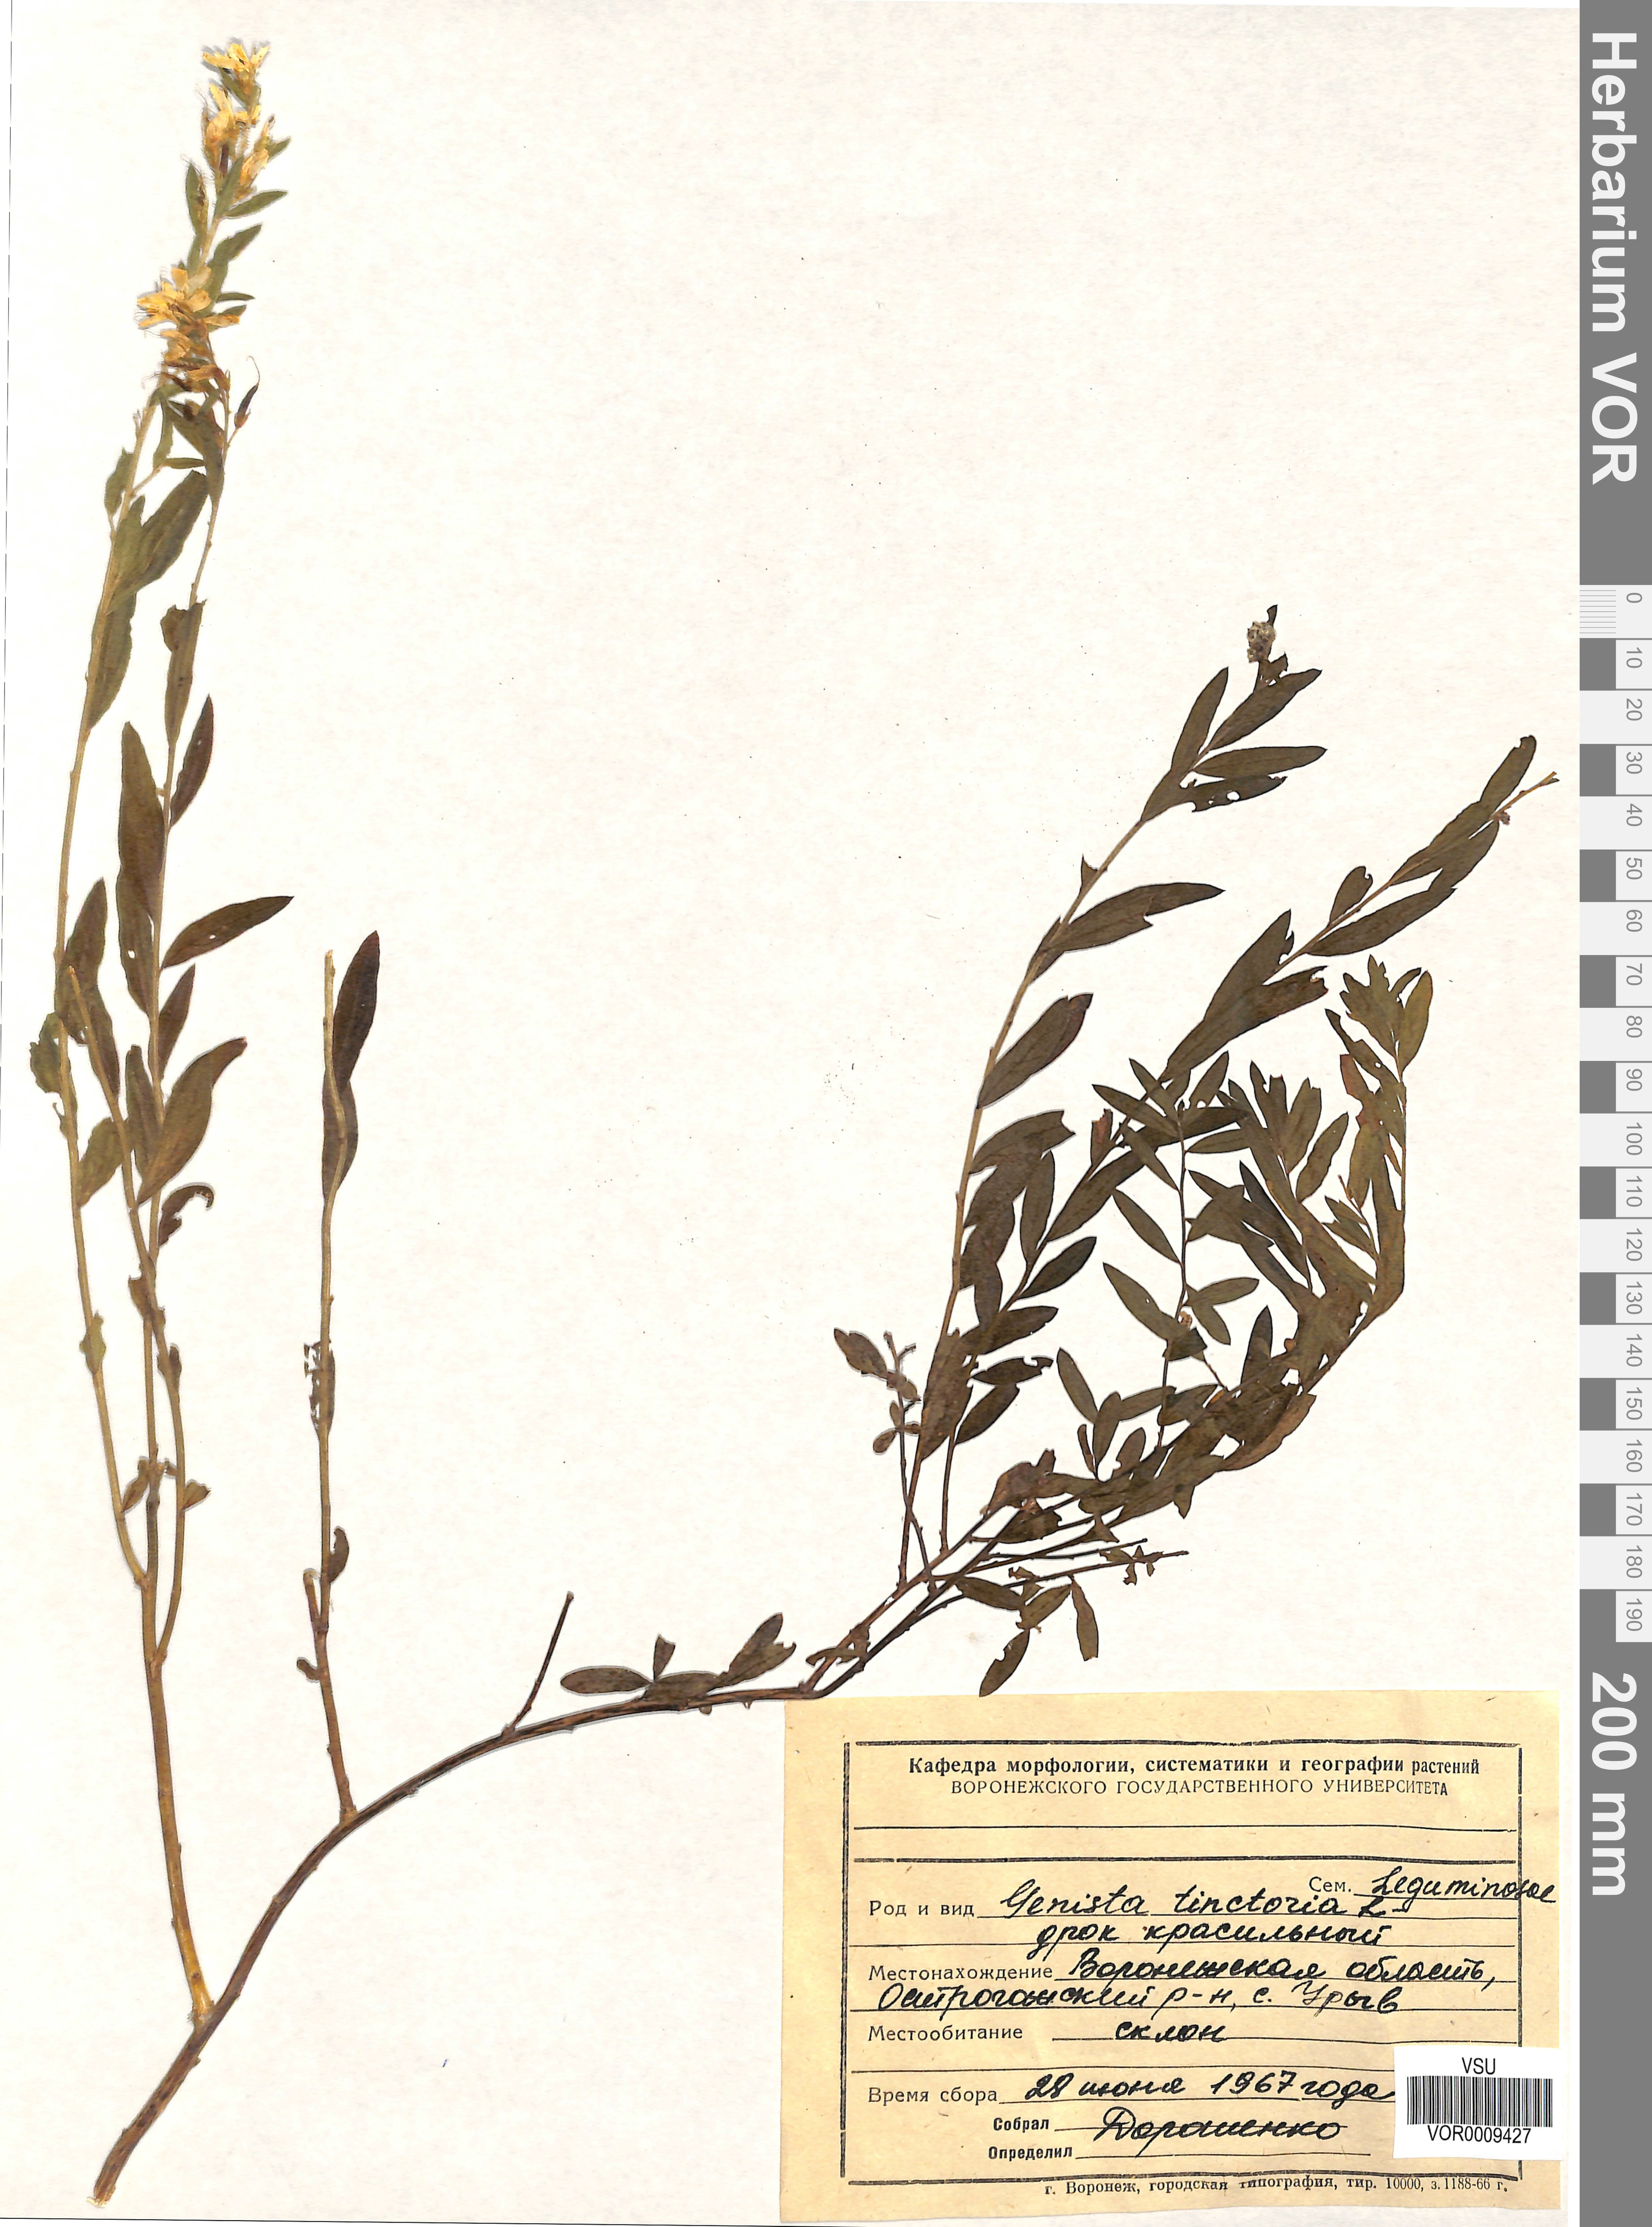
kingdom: Plantae
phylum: Tracheophyta
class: Magnoliopsida
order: Fabales
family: Fabaceae
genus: Genista
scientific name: Genista tinctoria
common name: Dyer's greenweed
